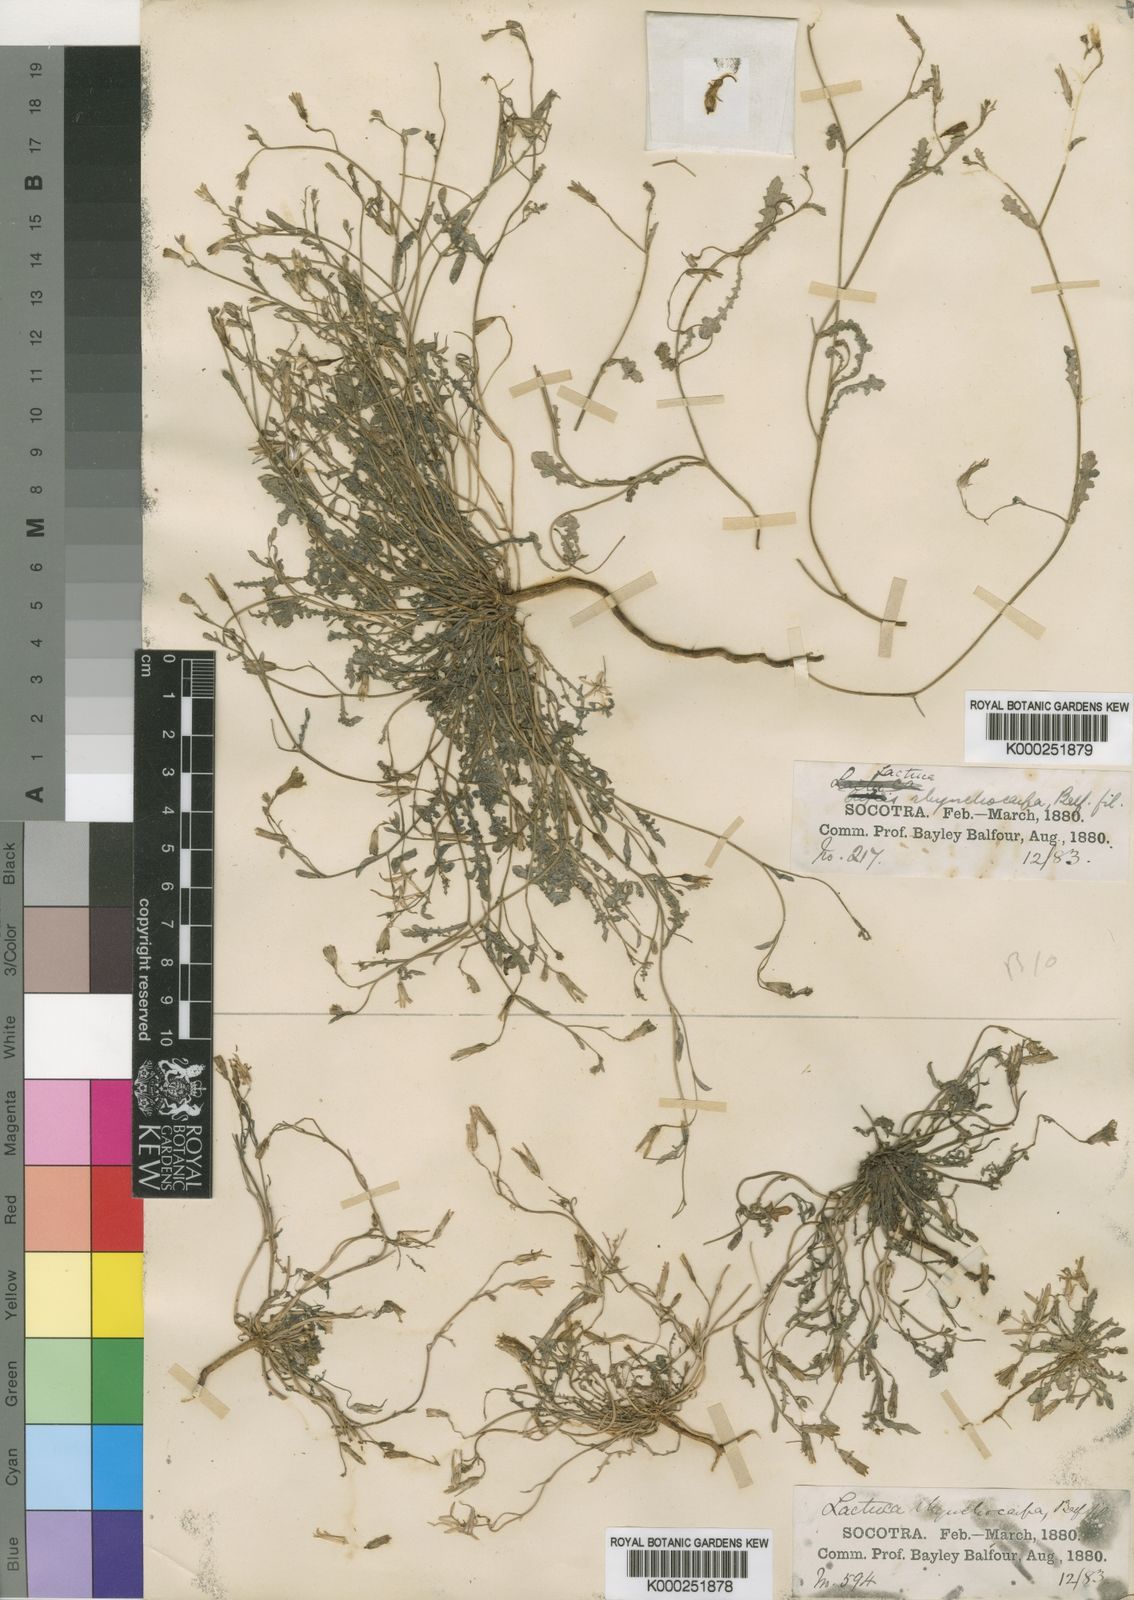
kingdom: Plantae
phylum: Tracheophyta
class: Magnoliopsida
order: Asterales
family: Asteraceae
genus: Launaea
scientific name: Launaea rhynchocarpa
